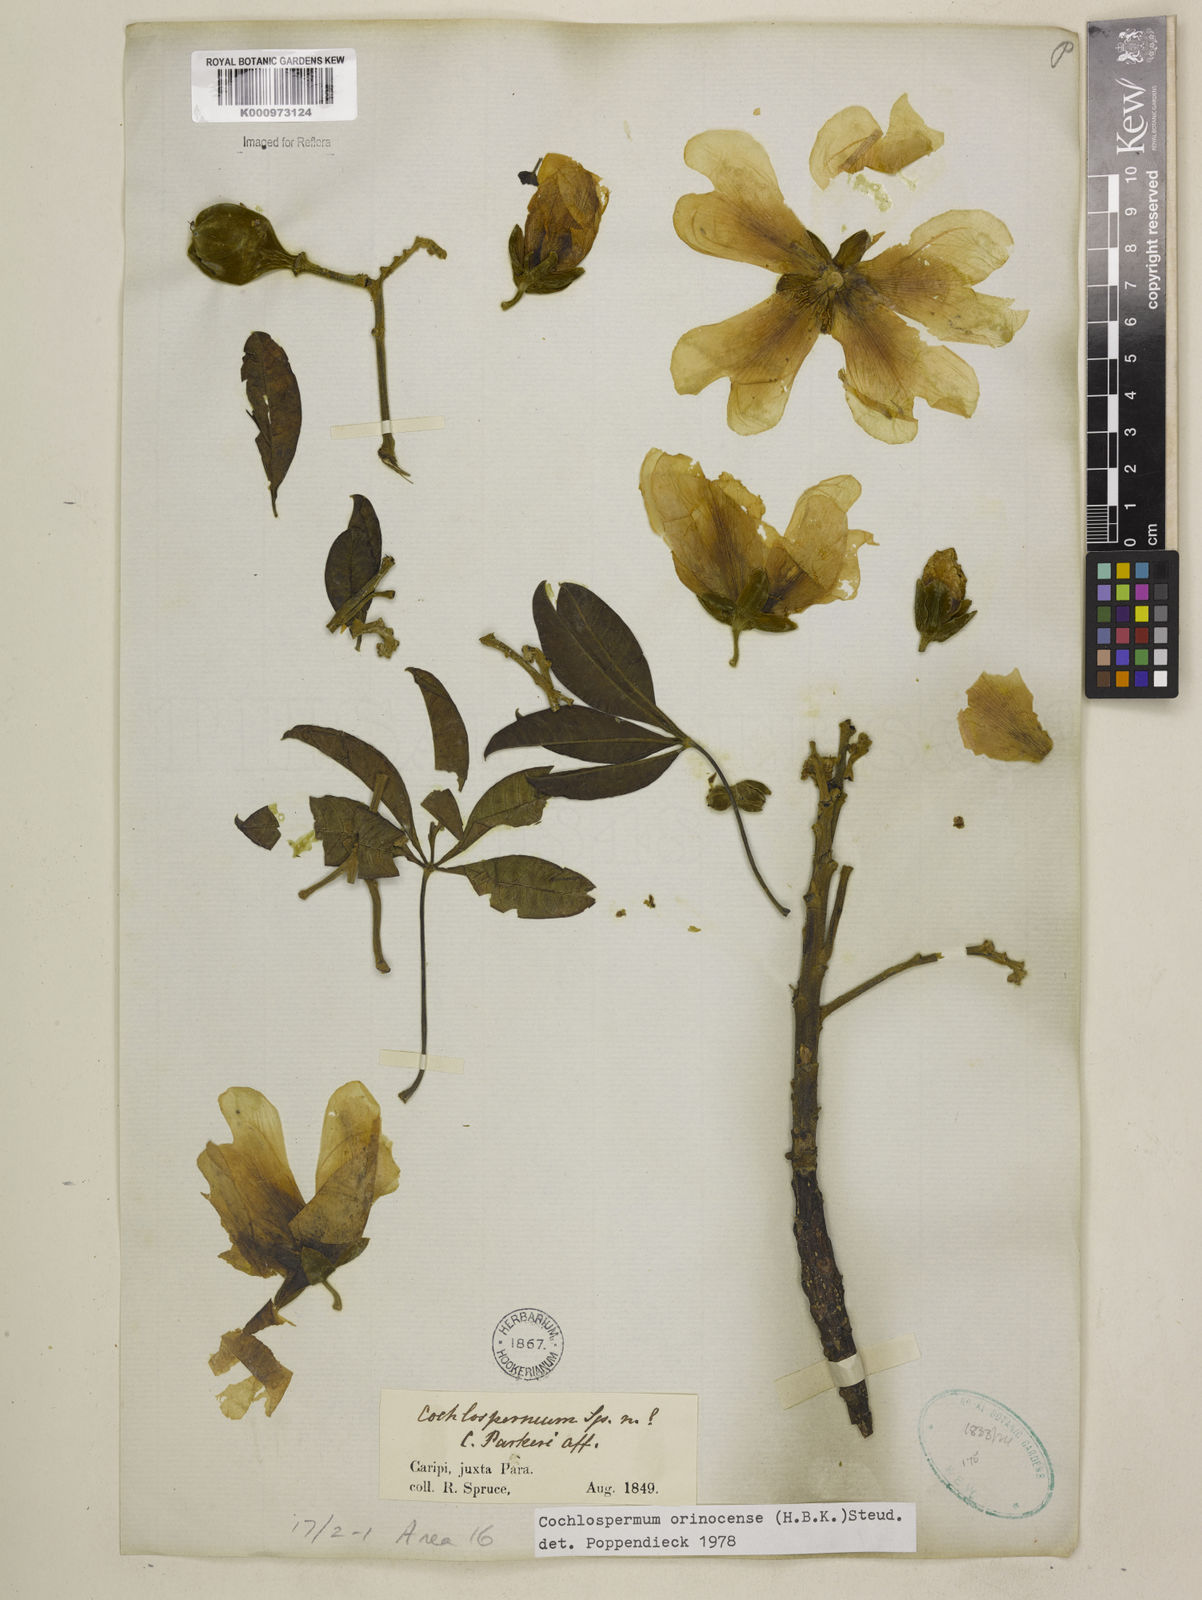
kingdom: Plantae
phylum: Tracheophyta
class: Magnoliopsida
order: Malvales
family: Cochlospermaceae
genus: Cochlospermum
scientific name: Cochlospermum orinocense
